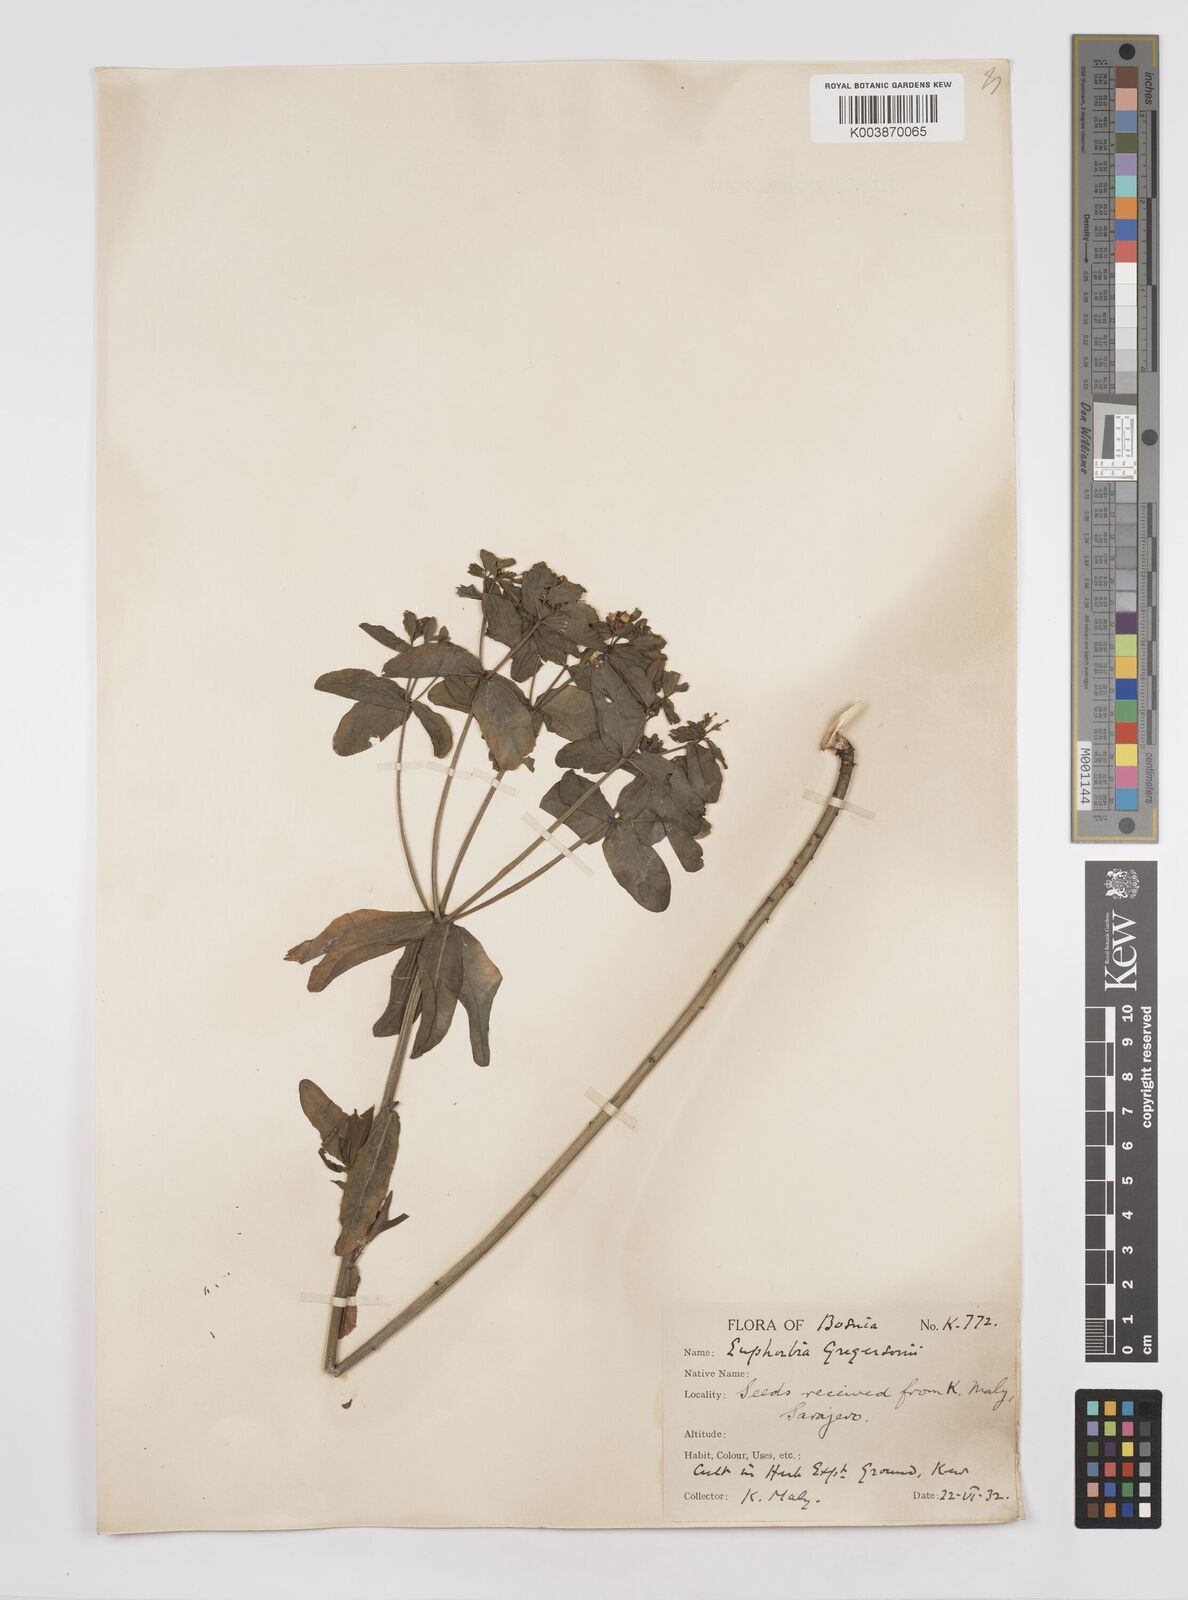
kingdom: Plantae
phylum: Tracheophyta
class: Magnoliopsida
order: Malpighiales
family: Euphorbiaceae
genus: Euphorbia
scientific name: Euphorbia gregersenii
